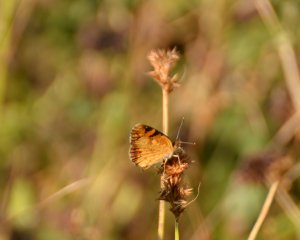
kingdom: Animalia
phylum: Arthropoda
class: Insecta
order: Lepidoptera
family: Nymphalidae
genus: Phyciodes
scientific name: Phyciodes tharos
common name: Northern Crescent
